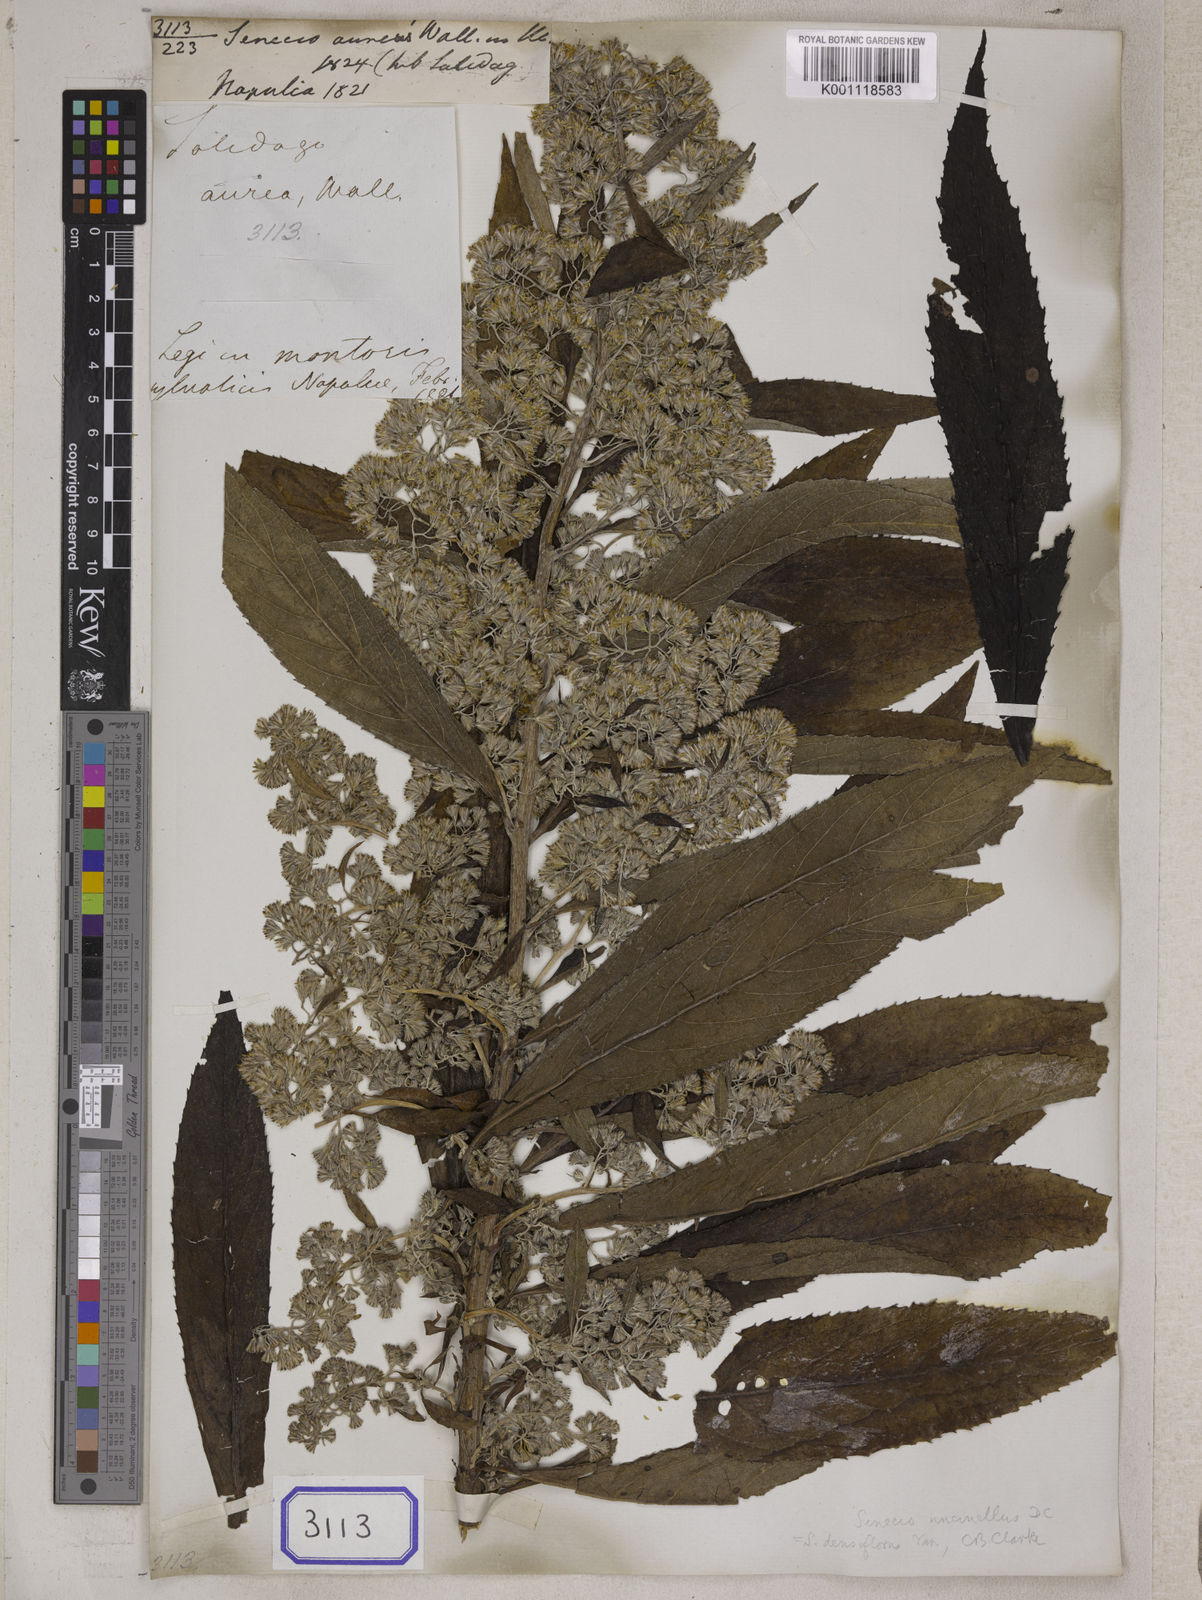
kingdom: Plantae
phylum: Tracheophyta
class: Magnoliopsida
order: Asterales
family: Asteraceae
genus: Synotis
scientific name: Synotis cappa
